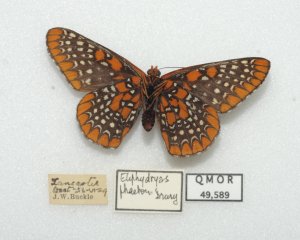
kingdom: Animalia
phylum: Arthropoda
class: Insecta
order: Lepidoptera
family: Nymphalidae
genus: Euphydryas
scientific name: Euphydryas phaeton
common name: Baltimore Checkerspot
